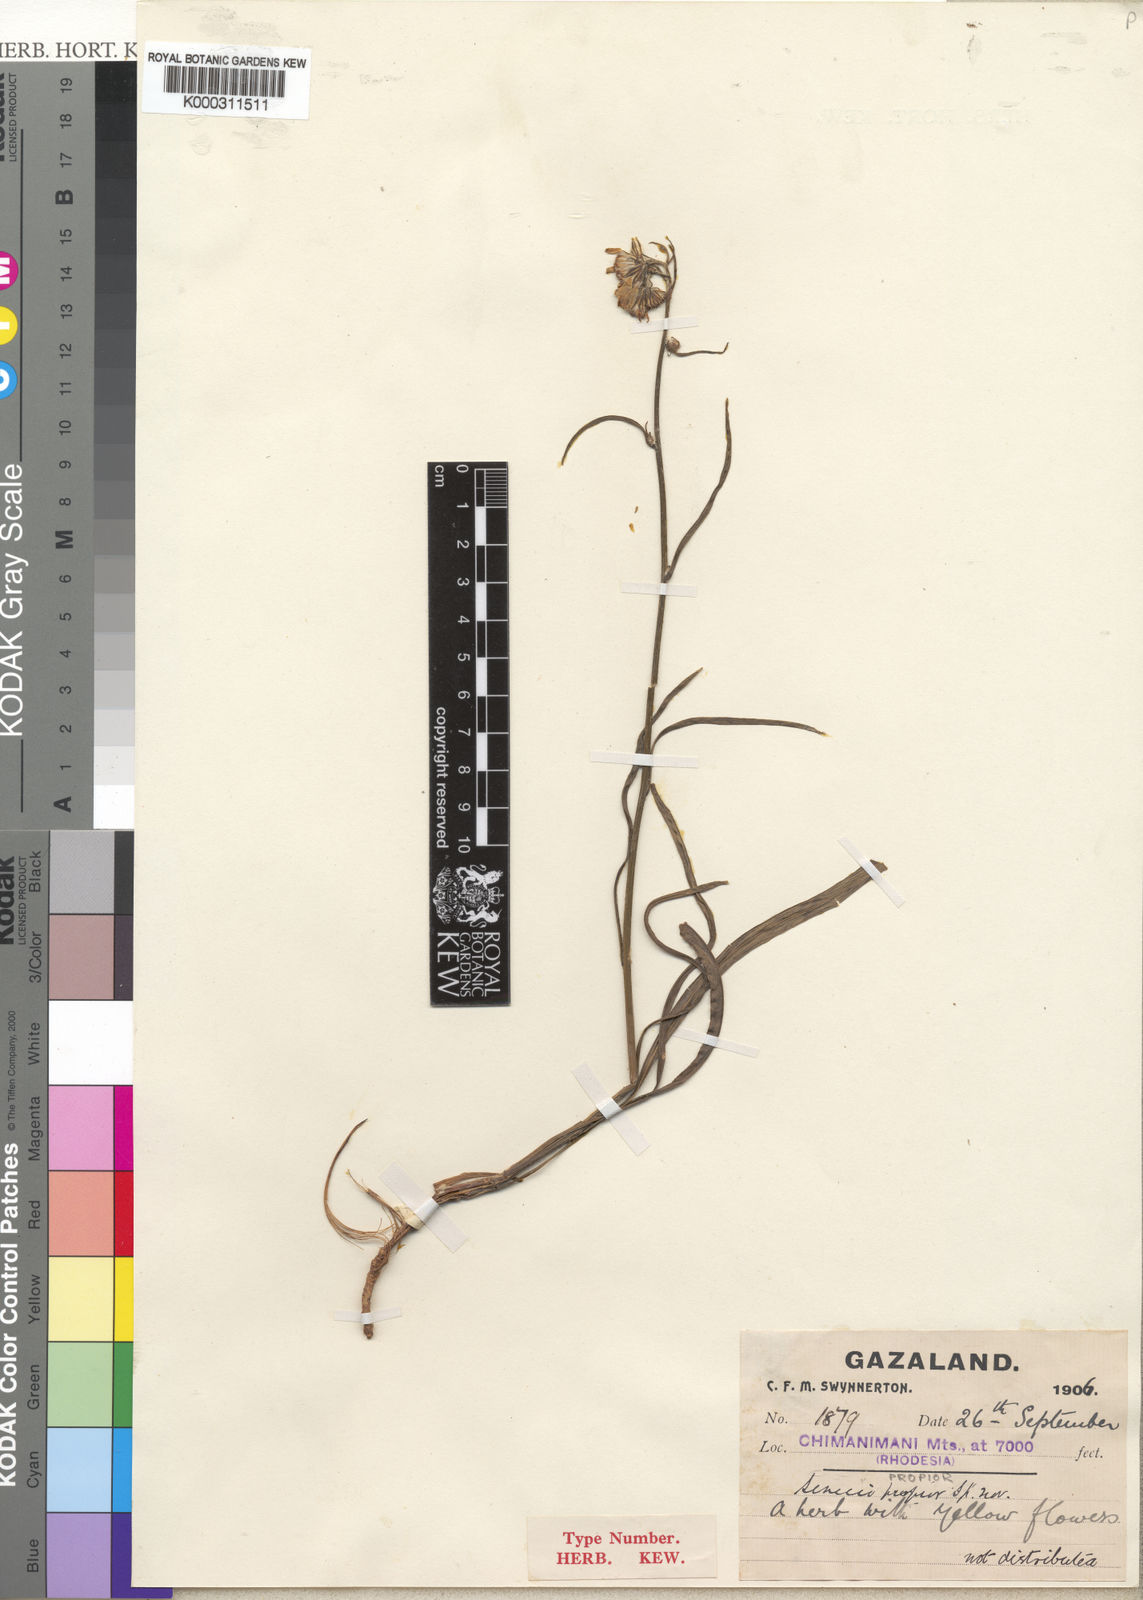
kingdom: Plantae
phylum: Tracheophyta
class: Magnoliopsida
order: Asterales
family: Asteraceae
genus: Senecio
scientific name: Senecio propior
